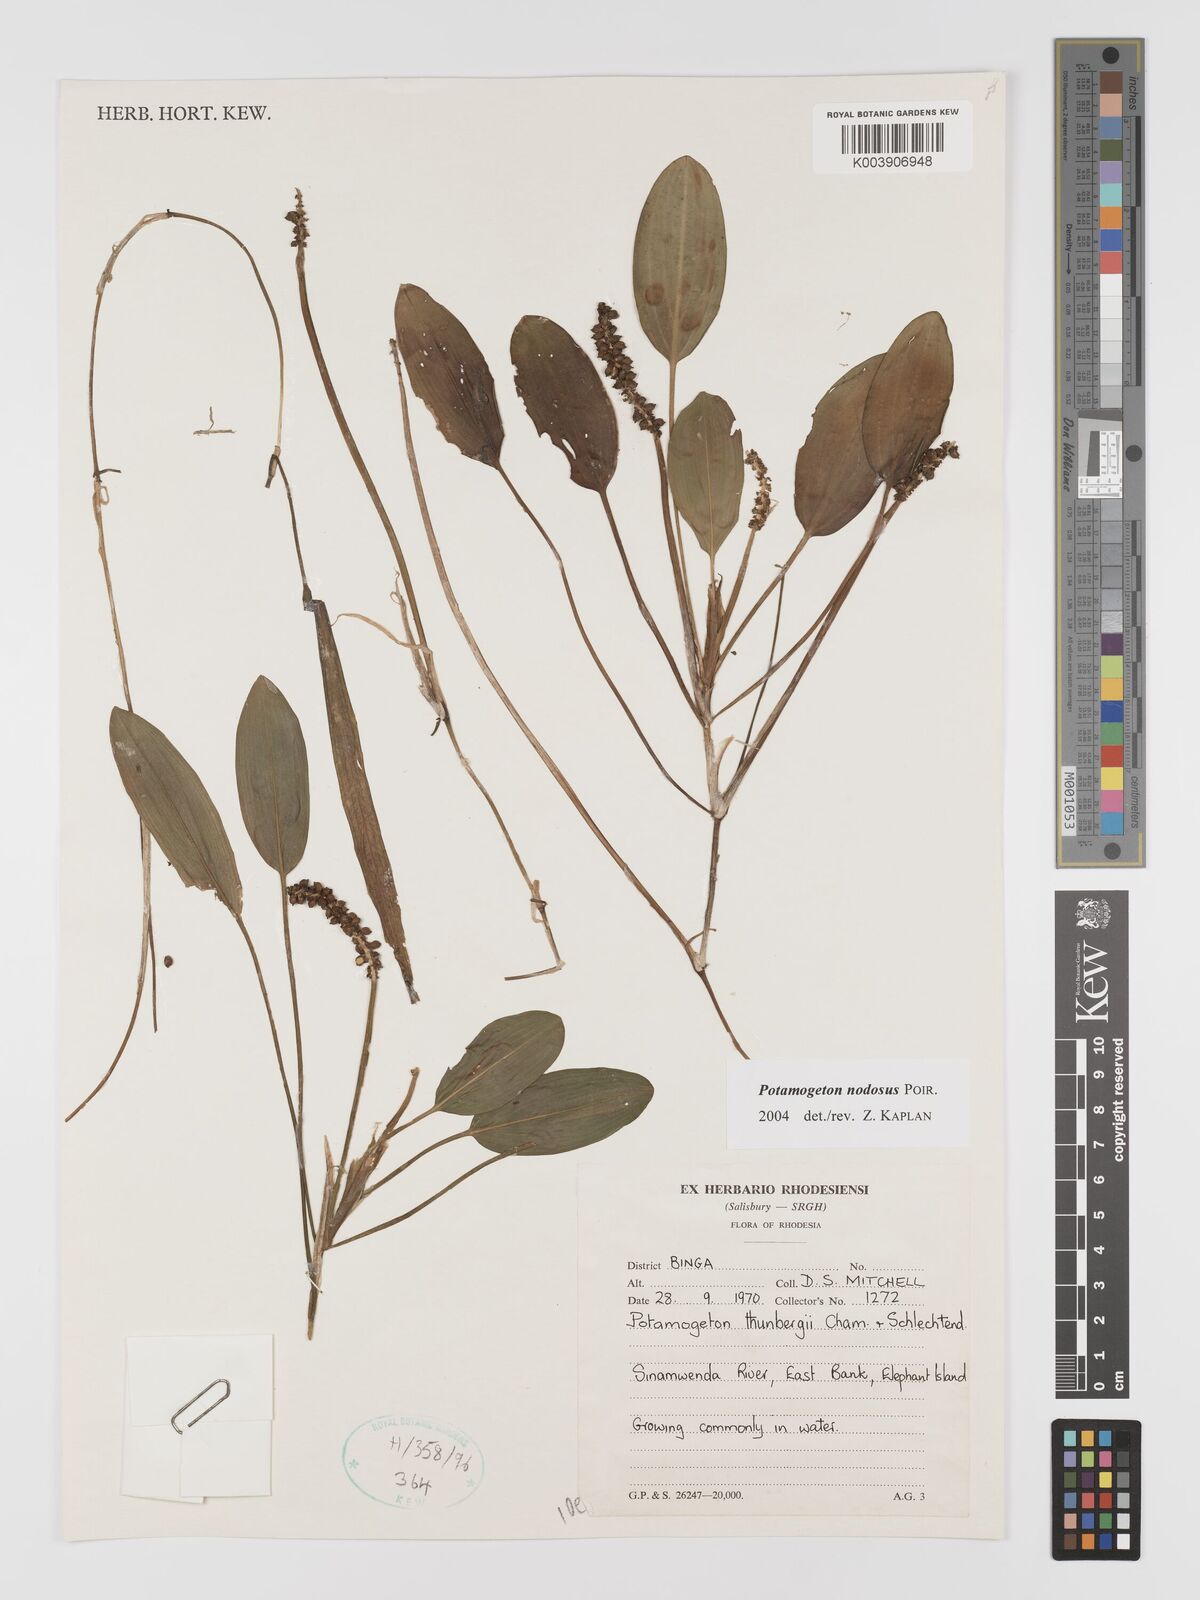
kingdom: Plantae
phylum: Tracheophyta
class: Liliopsida
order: Alismatales
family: Potamogetonaceae
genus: Potamogeton
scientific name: Potamogeton nodosus
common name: Loddon pondweed
